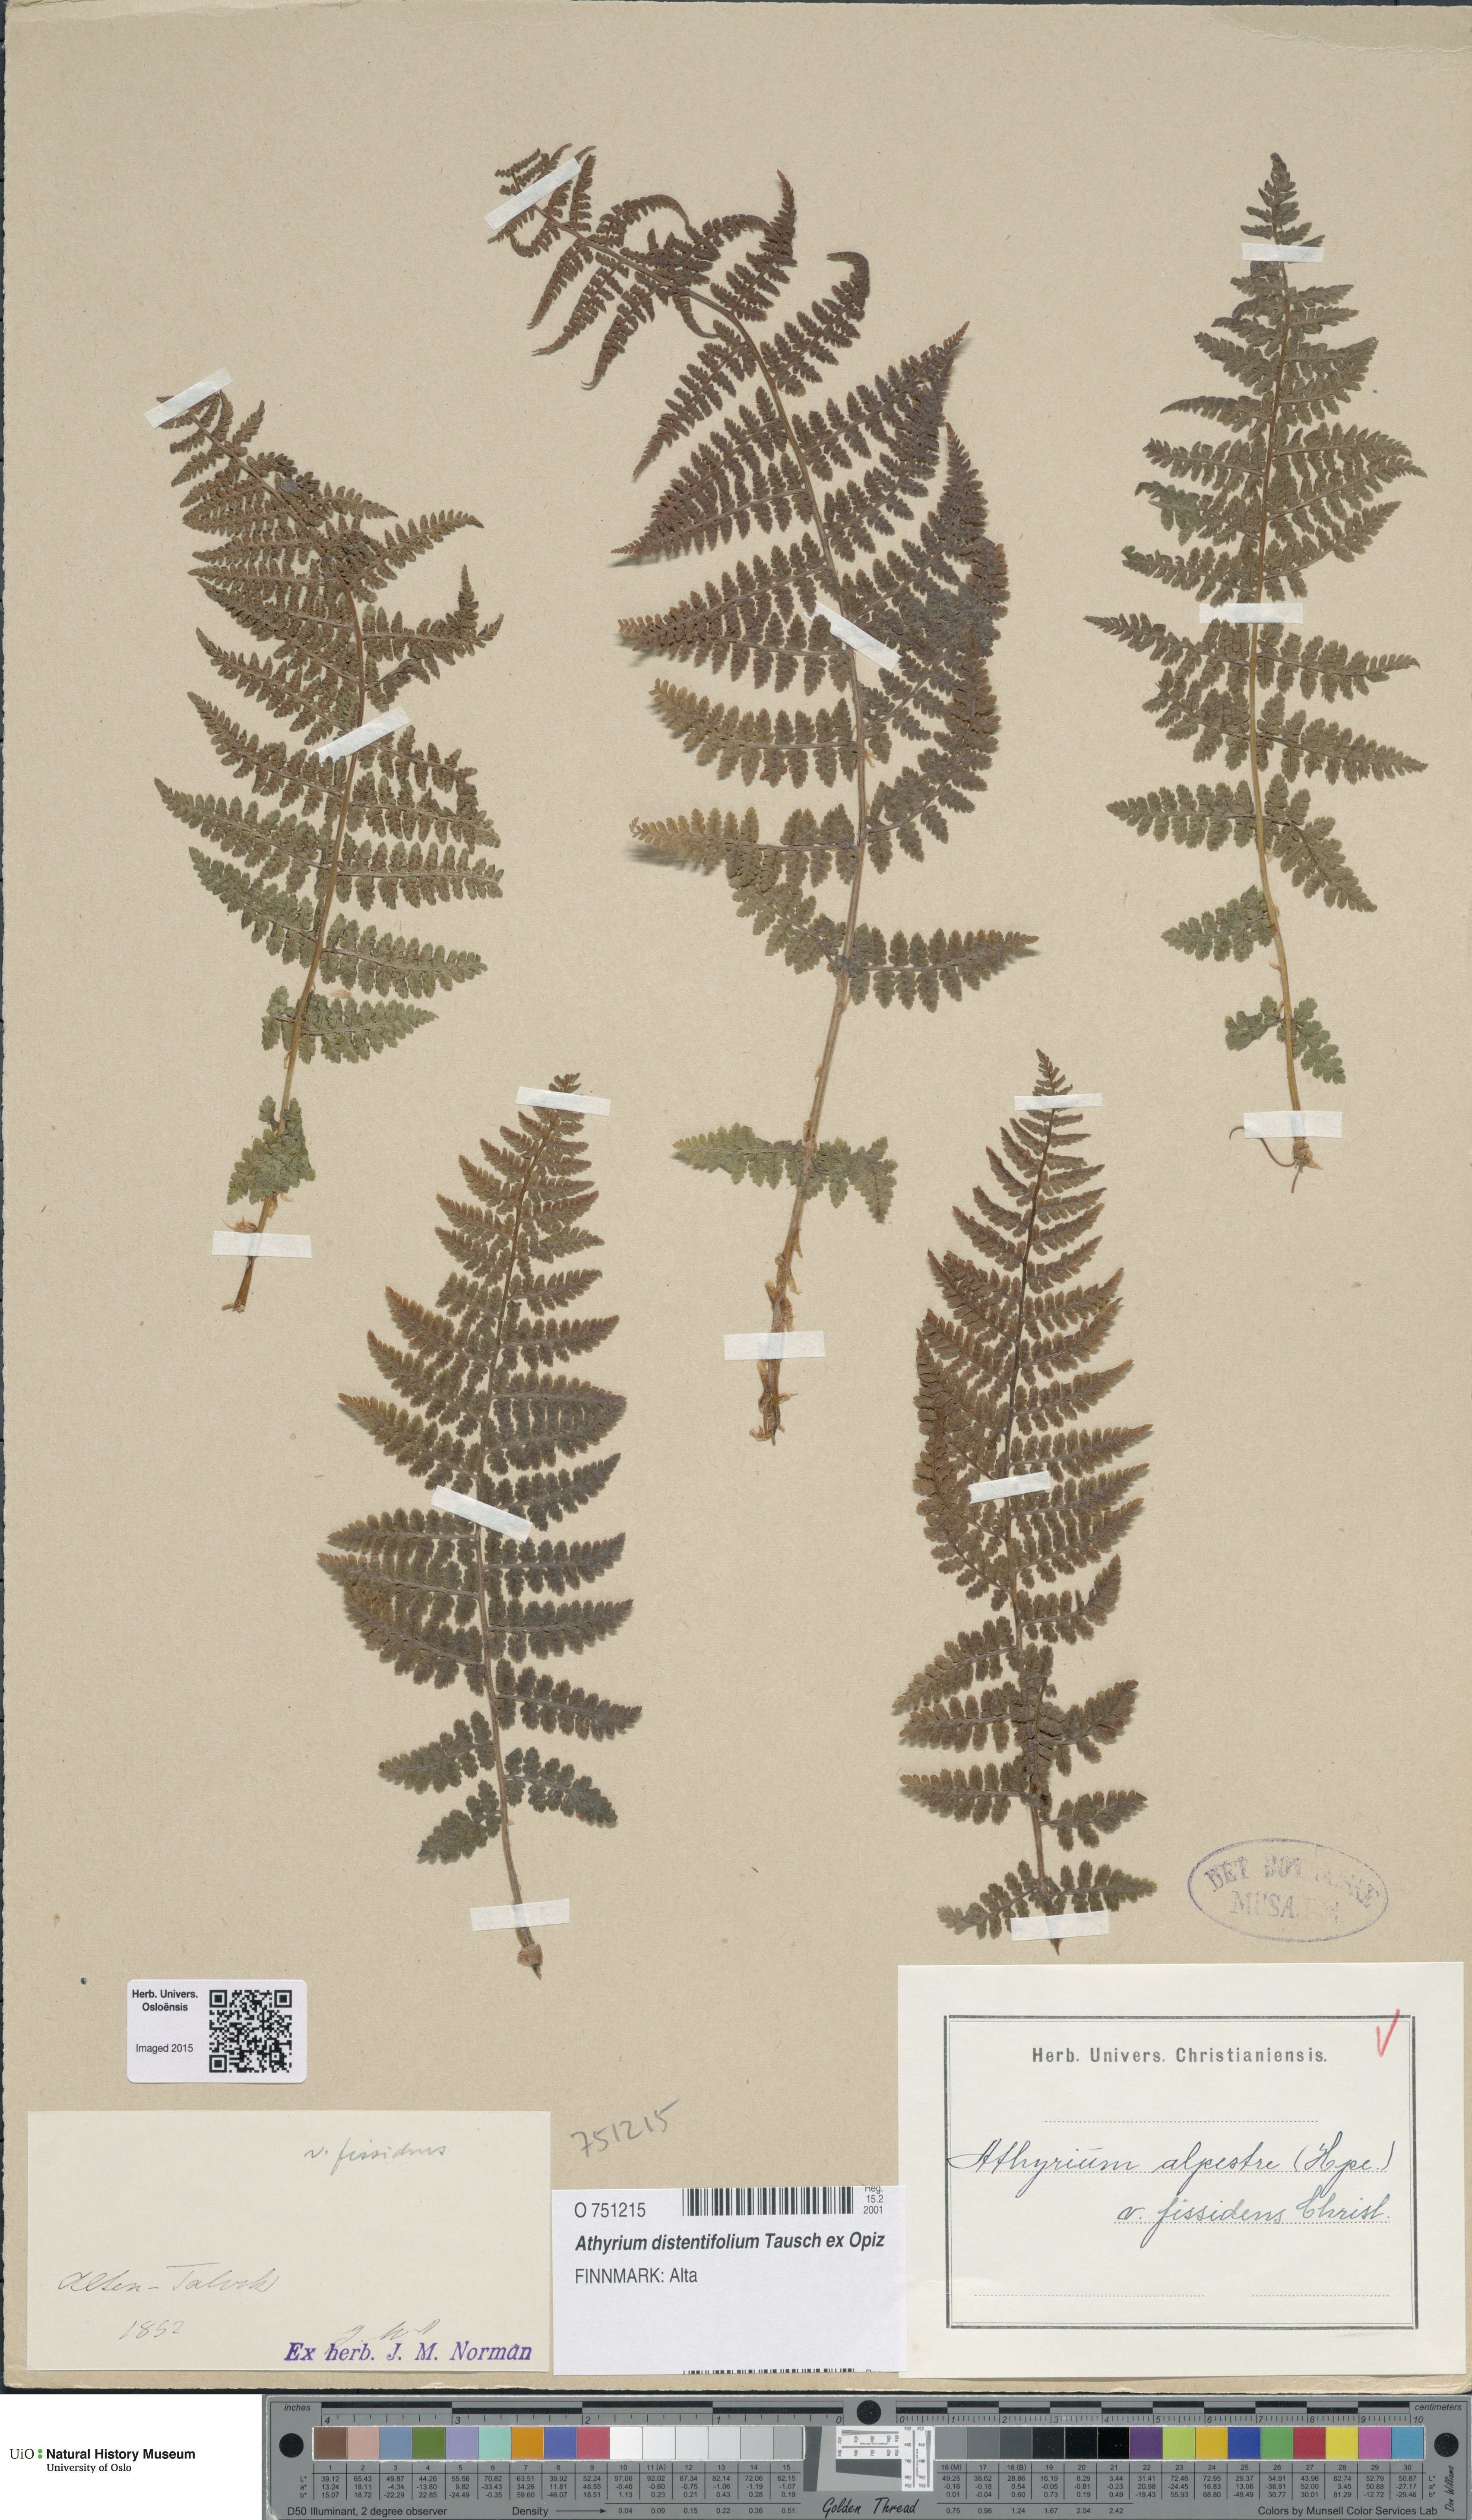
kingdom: Plantae
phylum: Tracheophyta
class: Polypodiopsida
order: Polypodiales
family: Athyriaceae
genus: Pseudathyrium
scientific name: Pseudathyrium alpestre
